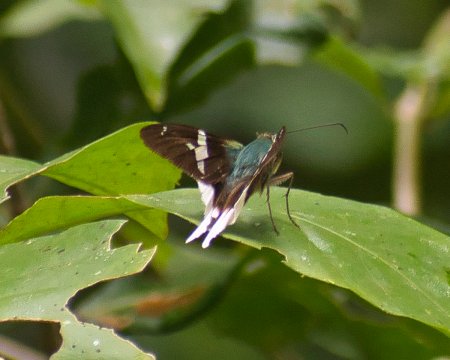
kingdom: Animalia
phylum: Arthropoda
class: Insecta
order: Lepidoptera
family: Hesperiidae
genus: Urbanus
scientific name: Urbanus chalco
